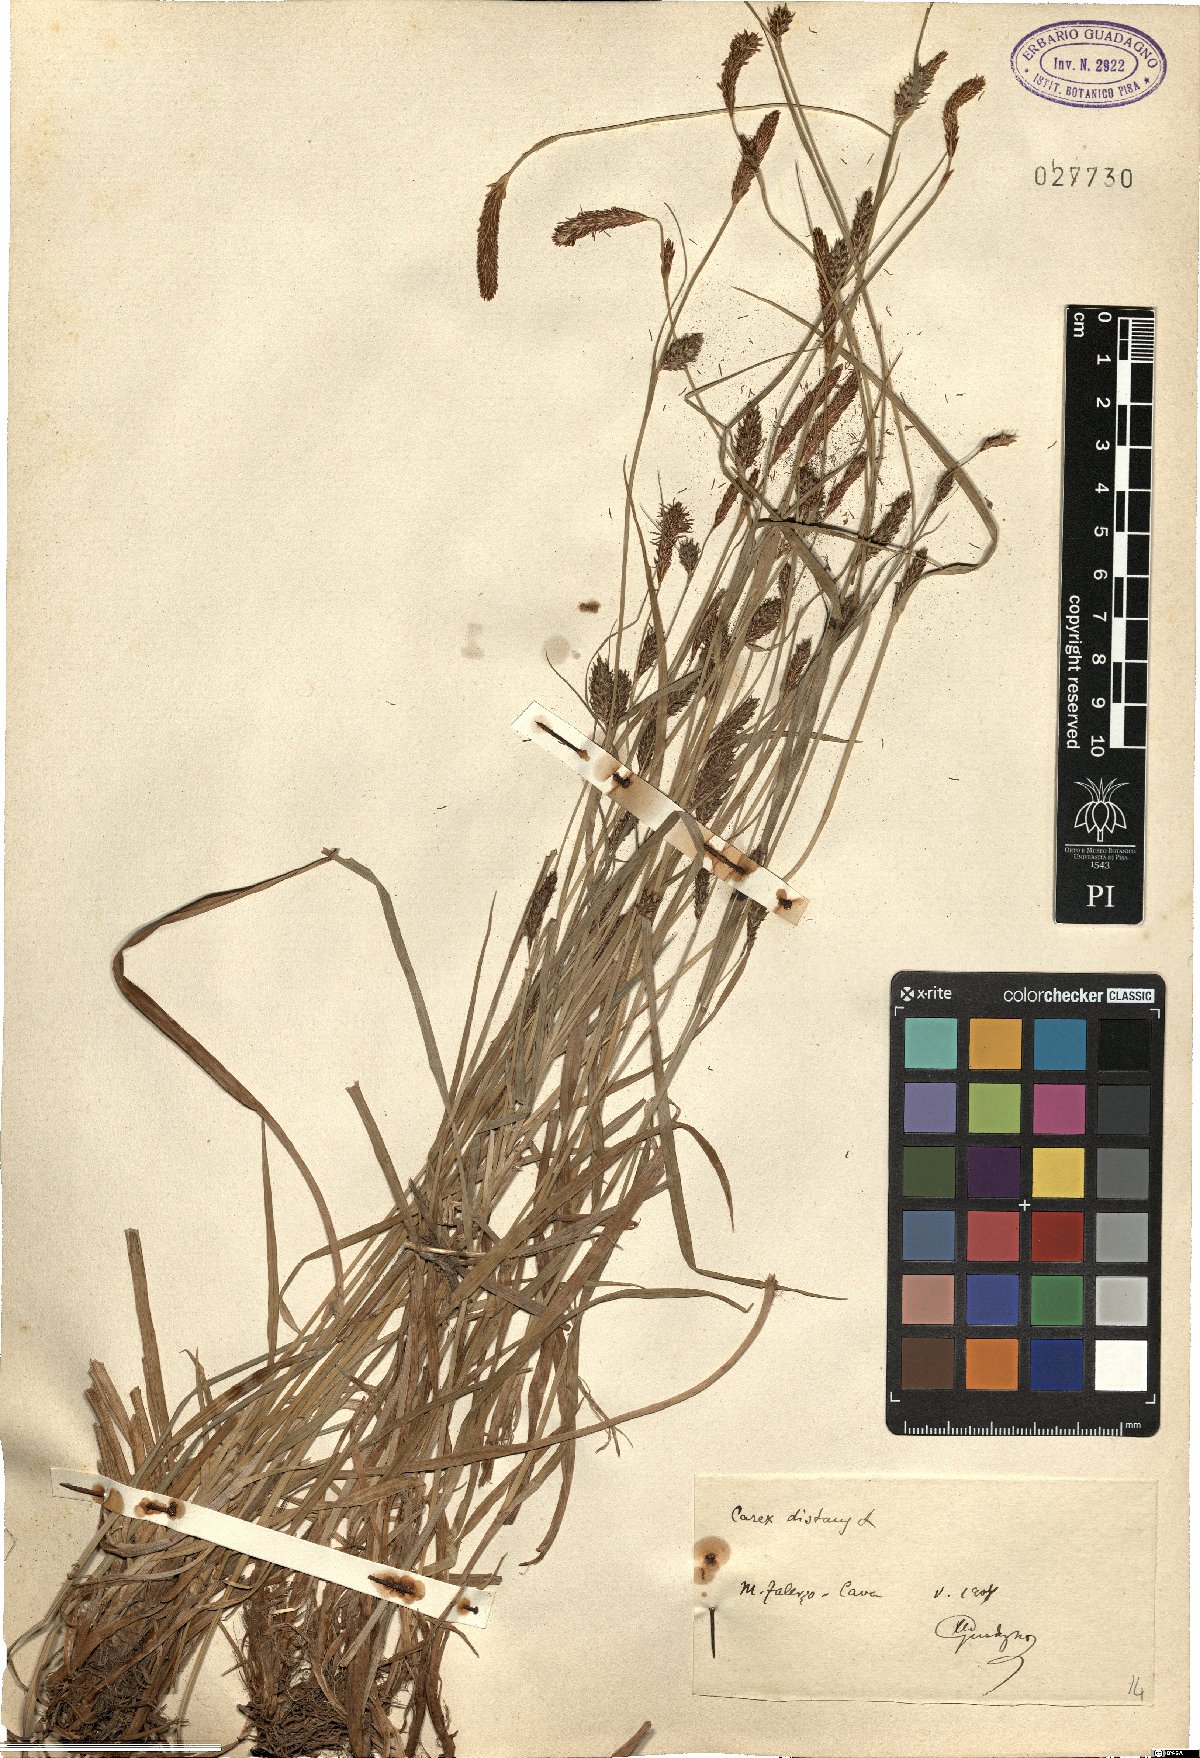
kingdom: Plantae
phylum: Tracheophyta
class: Liliopsida
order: Poales
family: Cyperaceae
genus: Carex
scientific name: Carex distans
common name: Distant sedge
